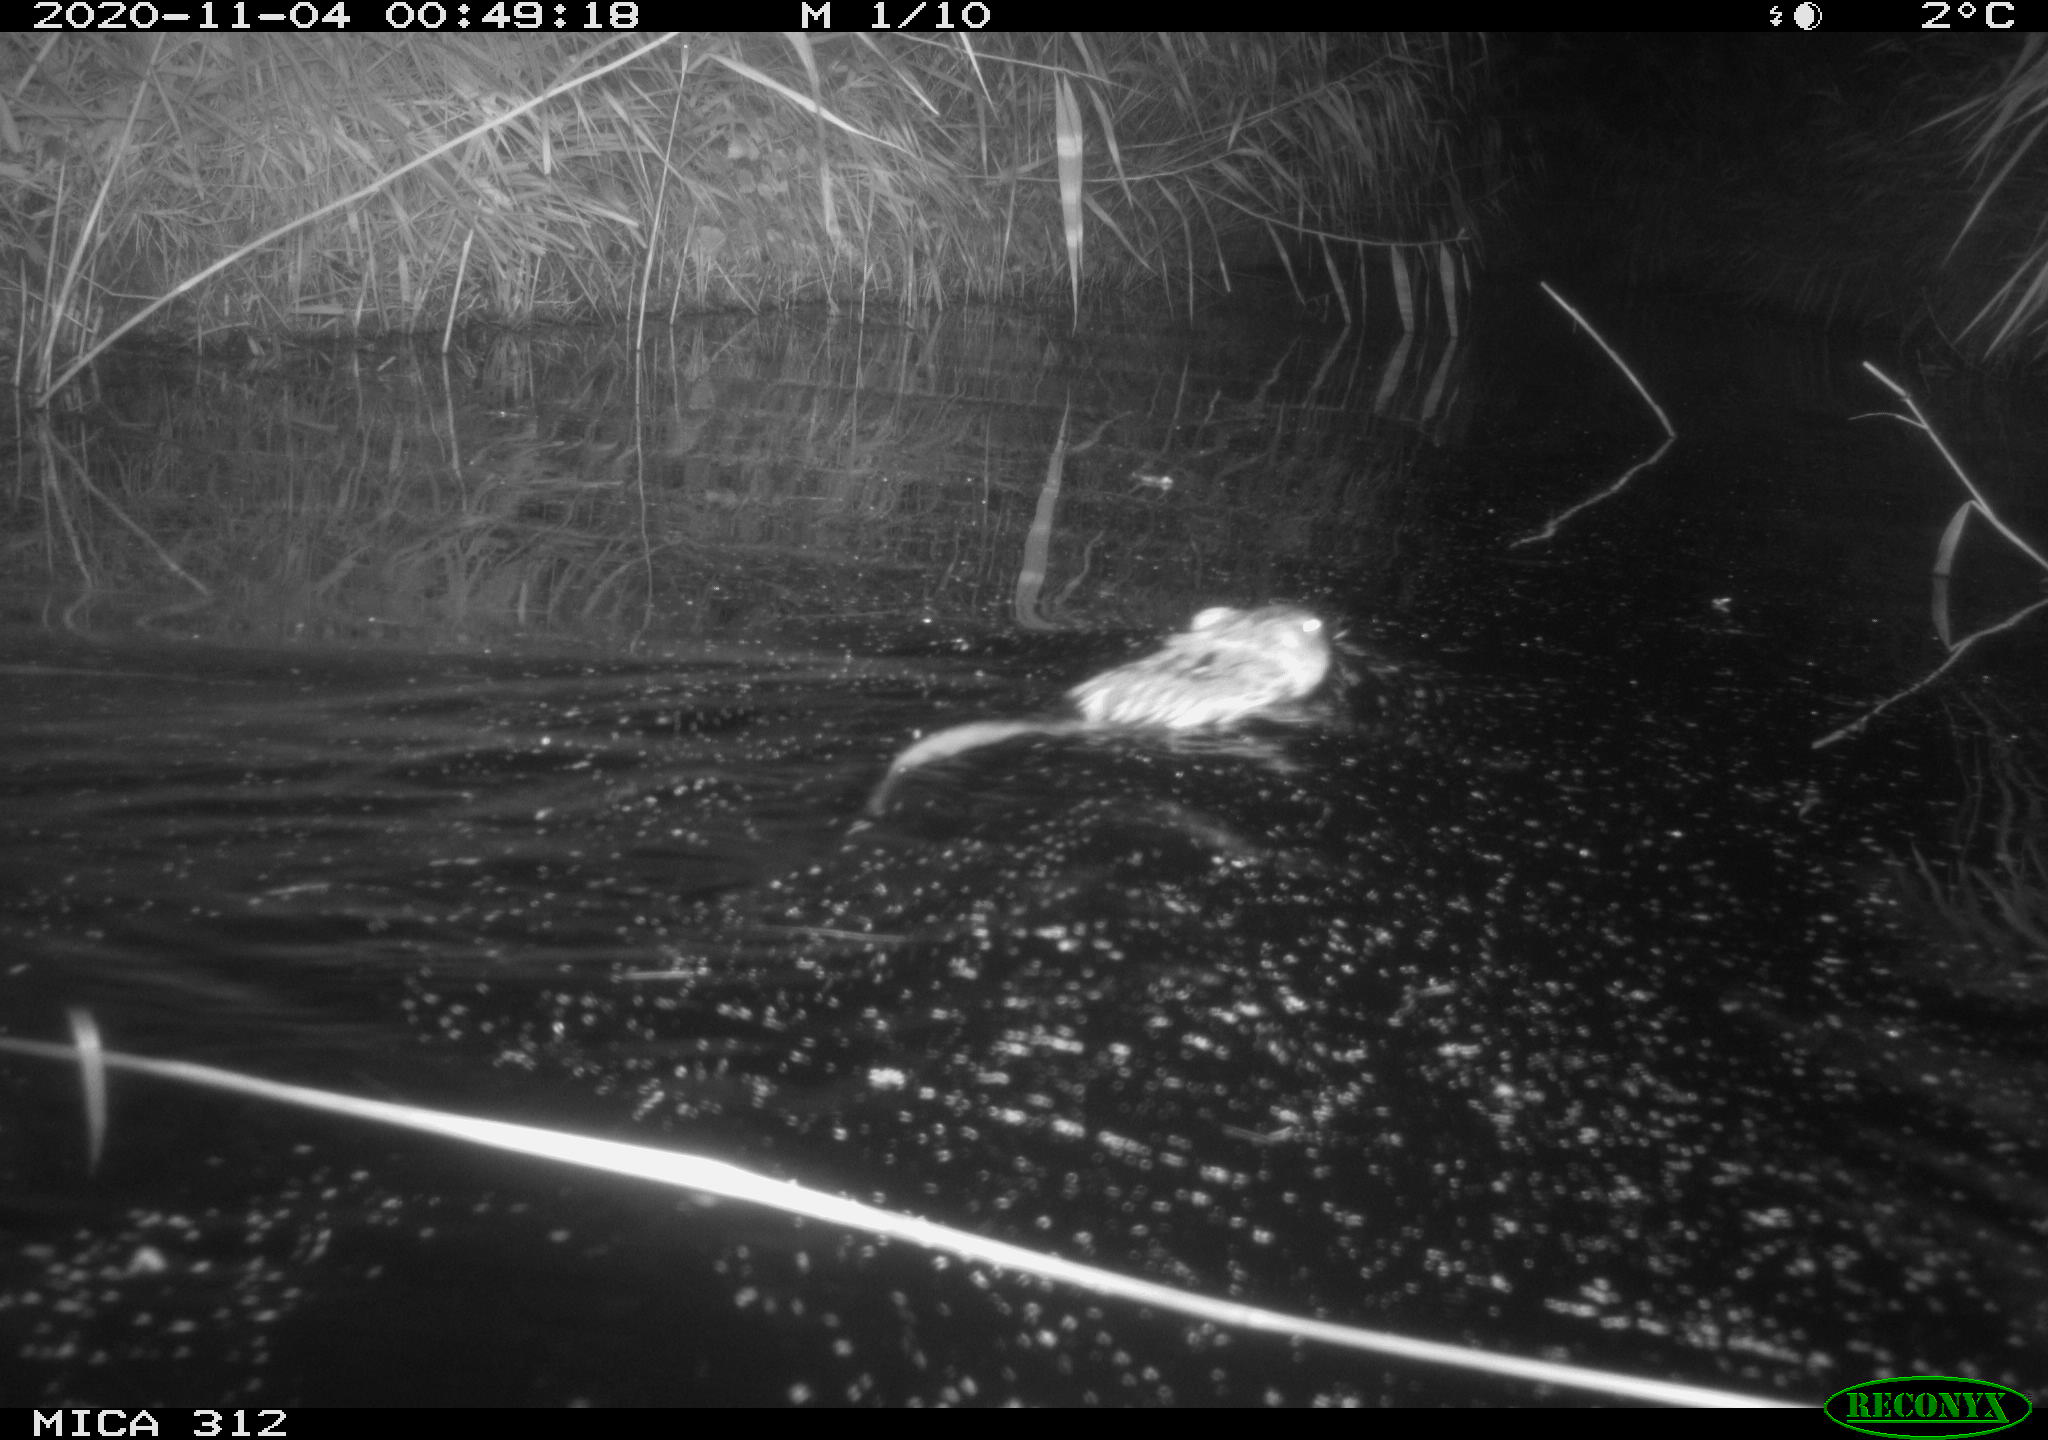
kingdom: Animalia
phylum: Chordata
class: Mammalia
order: Rodentia
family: Cricetidae
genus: Ondatra
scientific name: Ondatra zibethicus
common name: Muskrat
